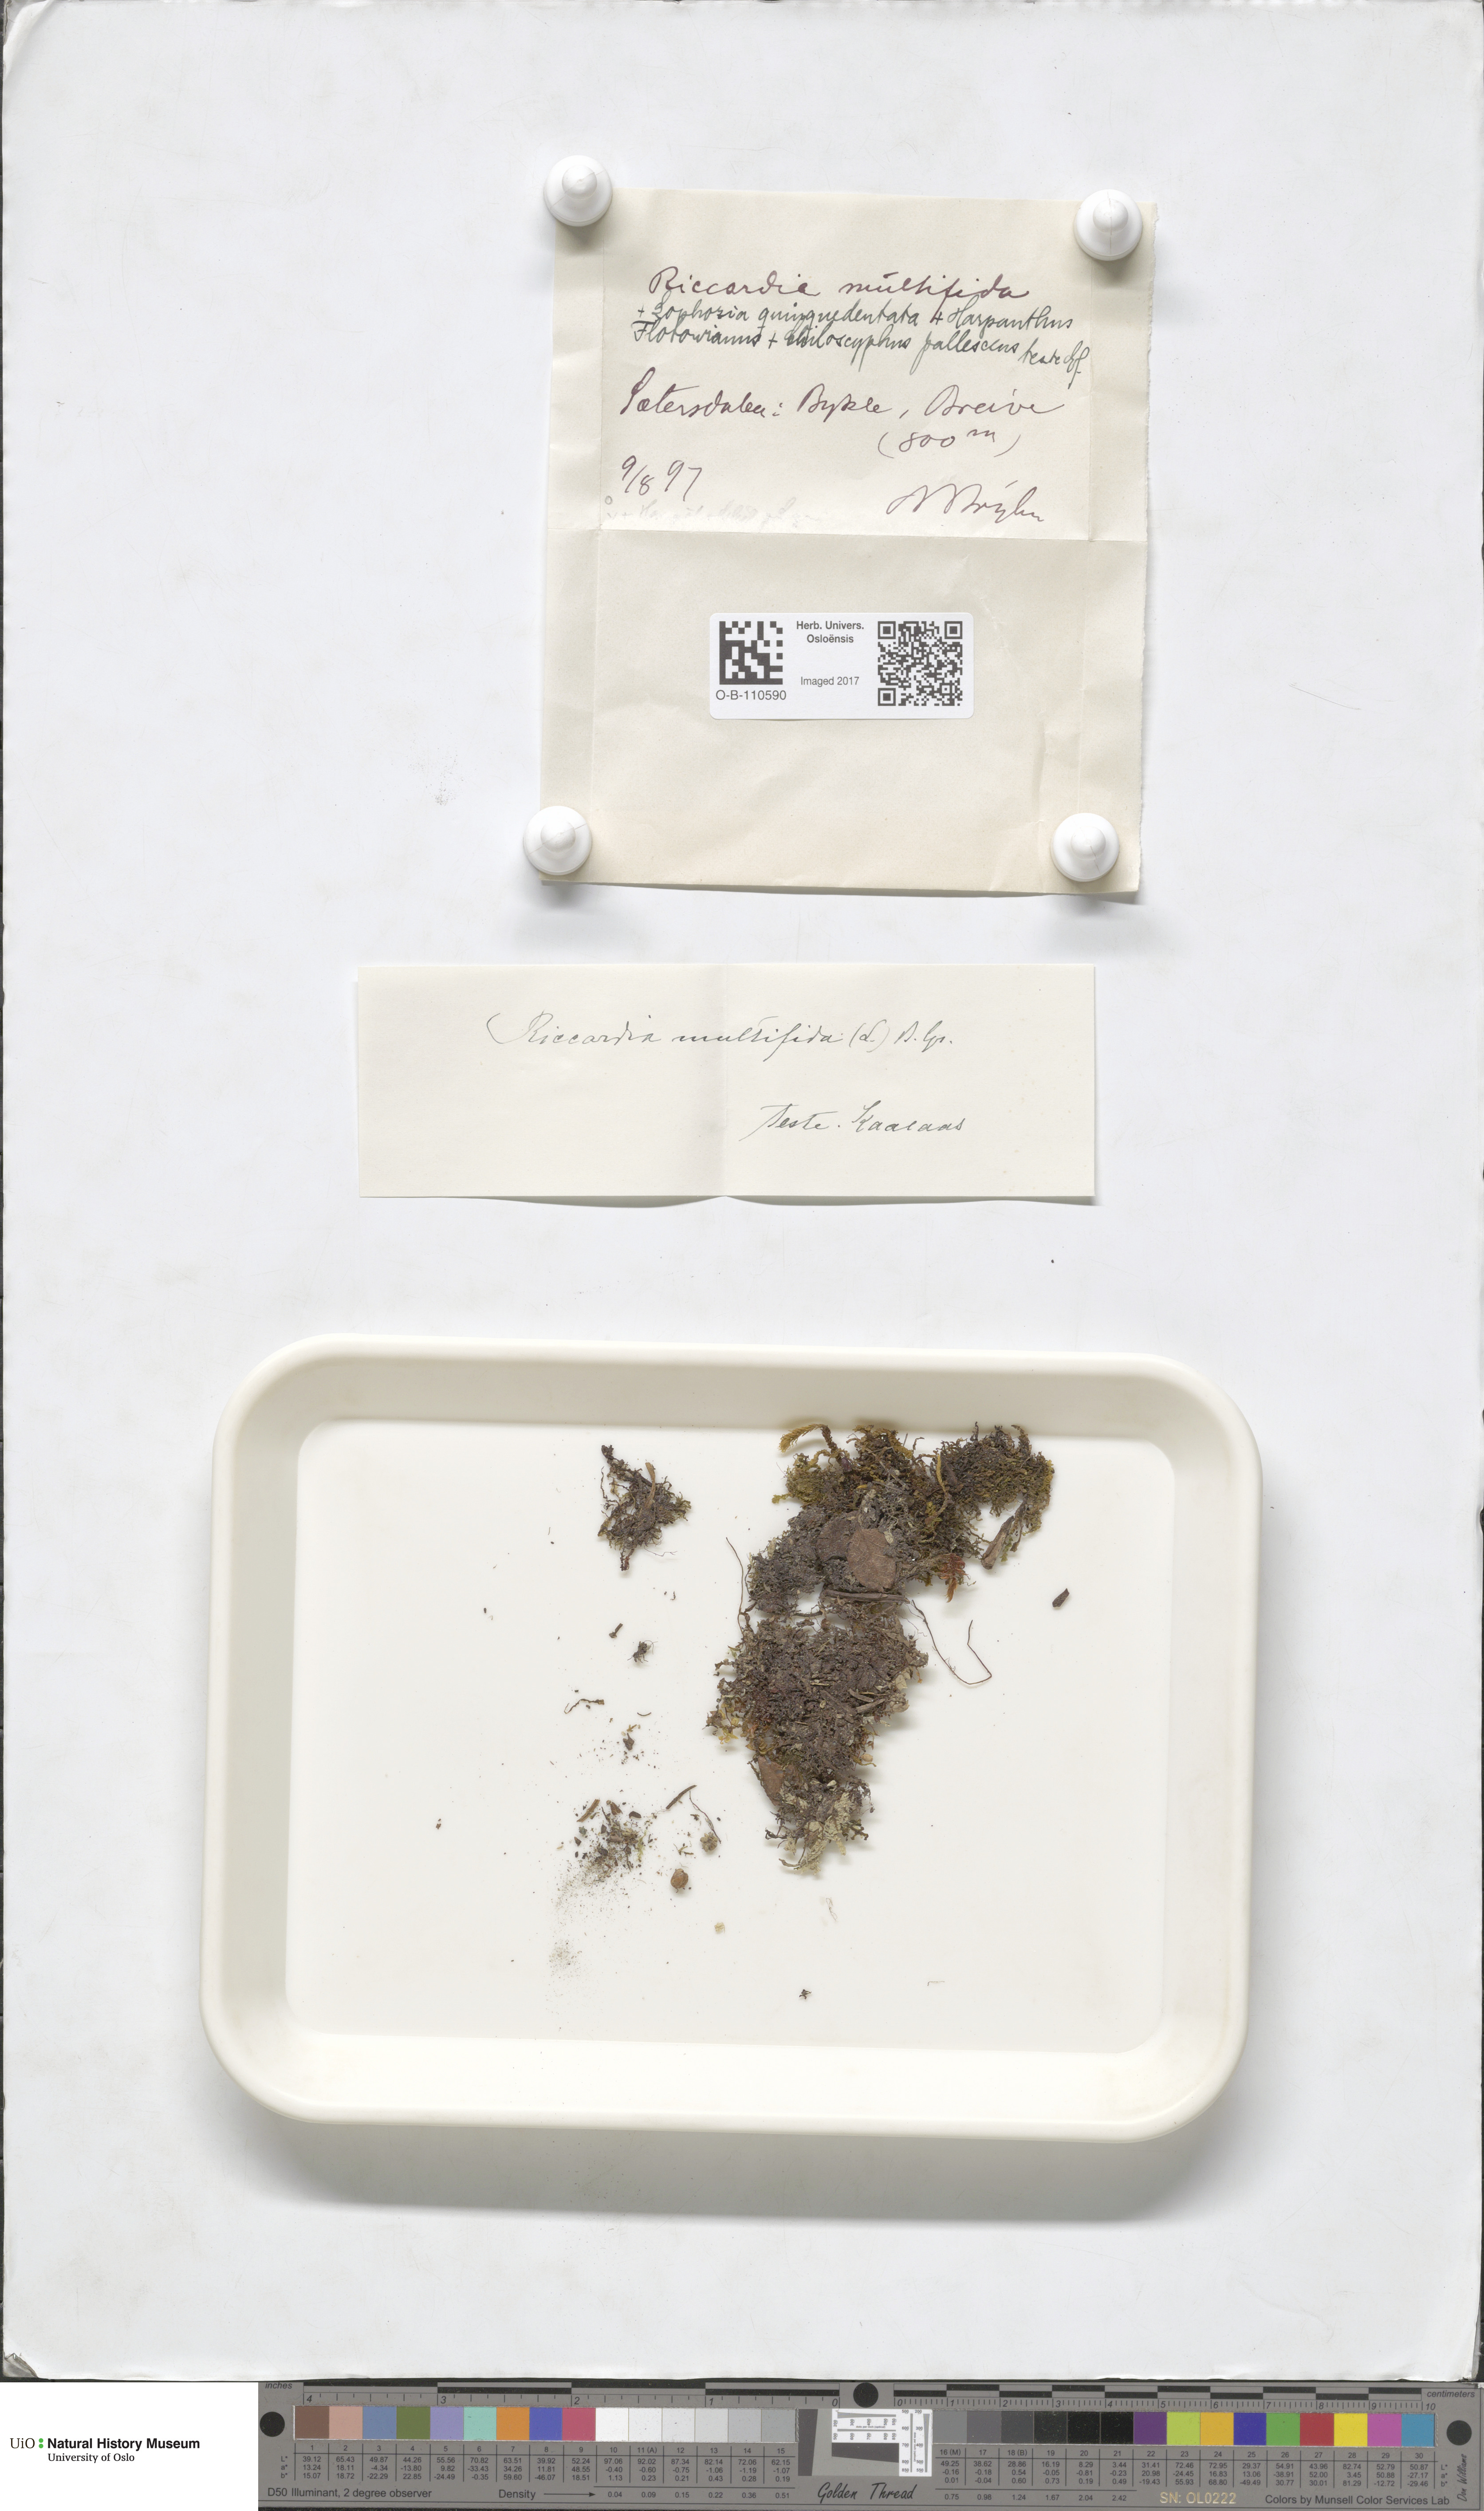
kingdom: Plantae
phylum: Marchantiophyta
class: Jungermanniopsida
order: Metzgeriales
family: Aneuraceae
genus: Riccardia
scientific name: Riccardia multifida
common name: Delicate germanderwort
